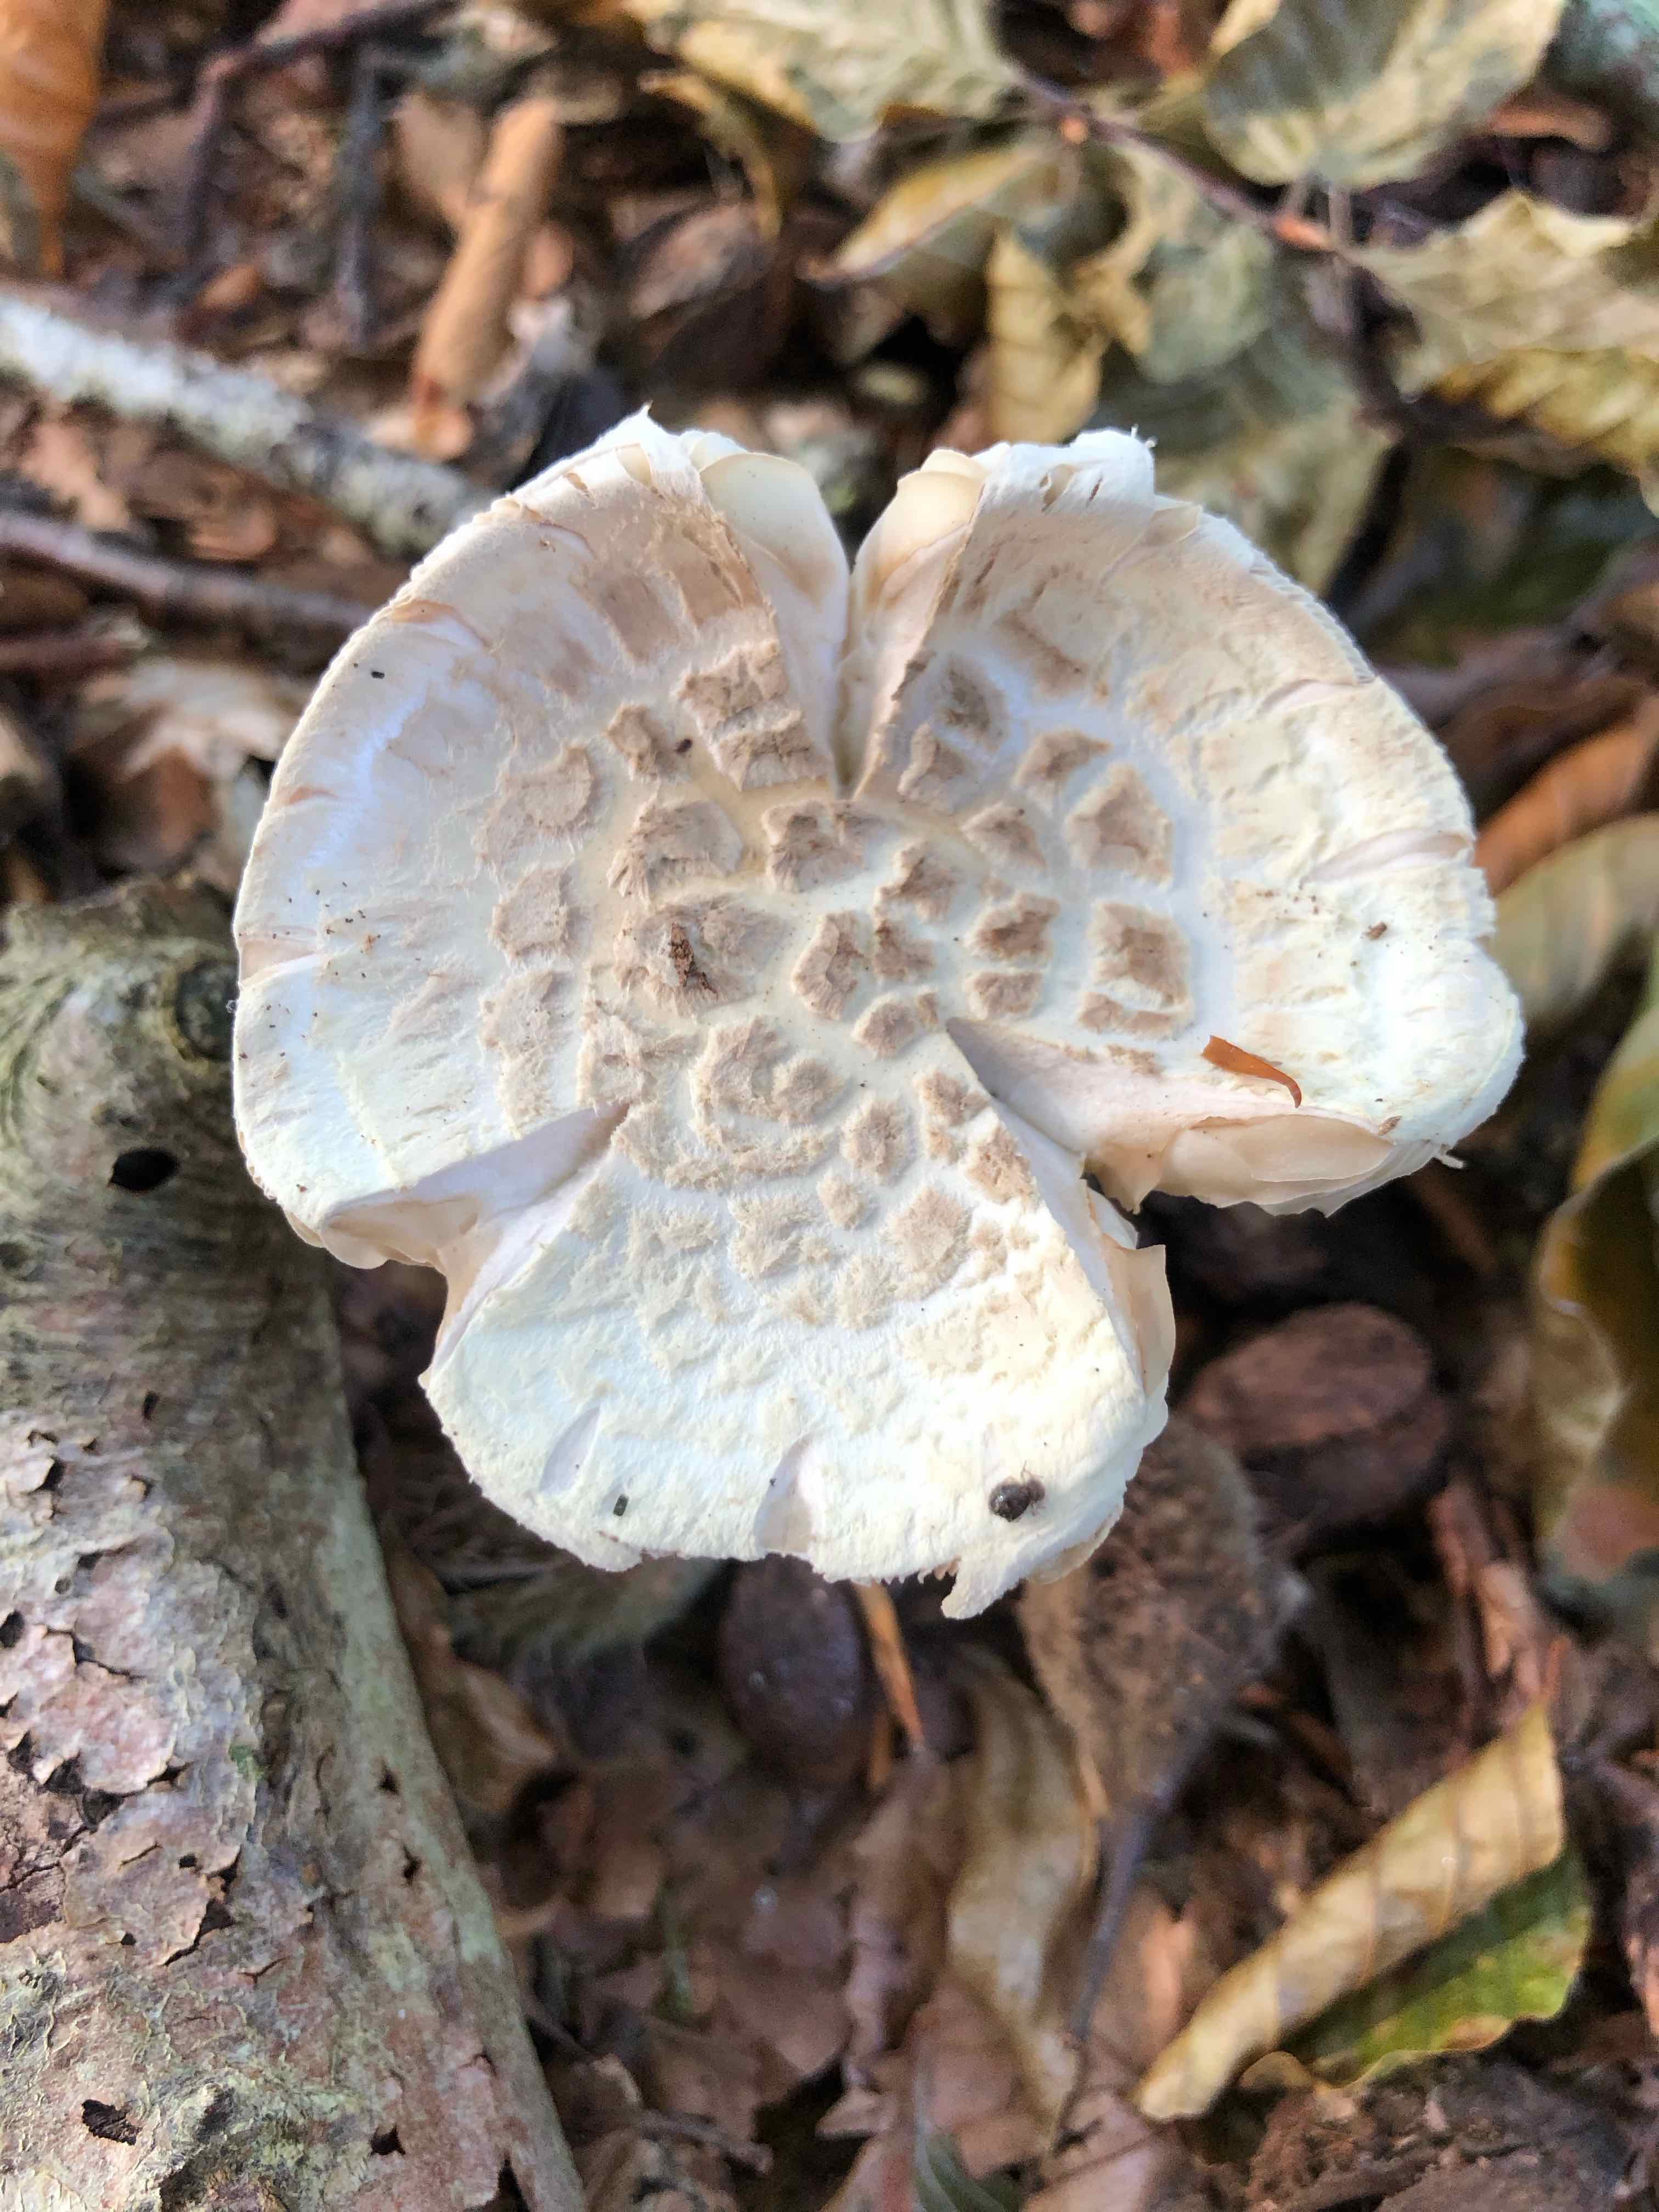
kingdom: Fungi
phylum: Basidiomycota
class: Agaricomycetes
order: Agaricales
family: Amanitaceae
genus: Amanita
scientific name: Amanita citrina
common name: kugleknoldet fluesvamp
